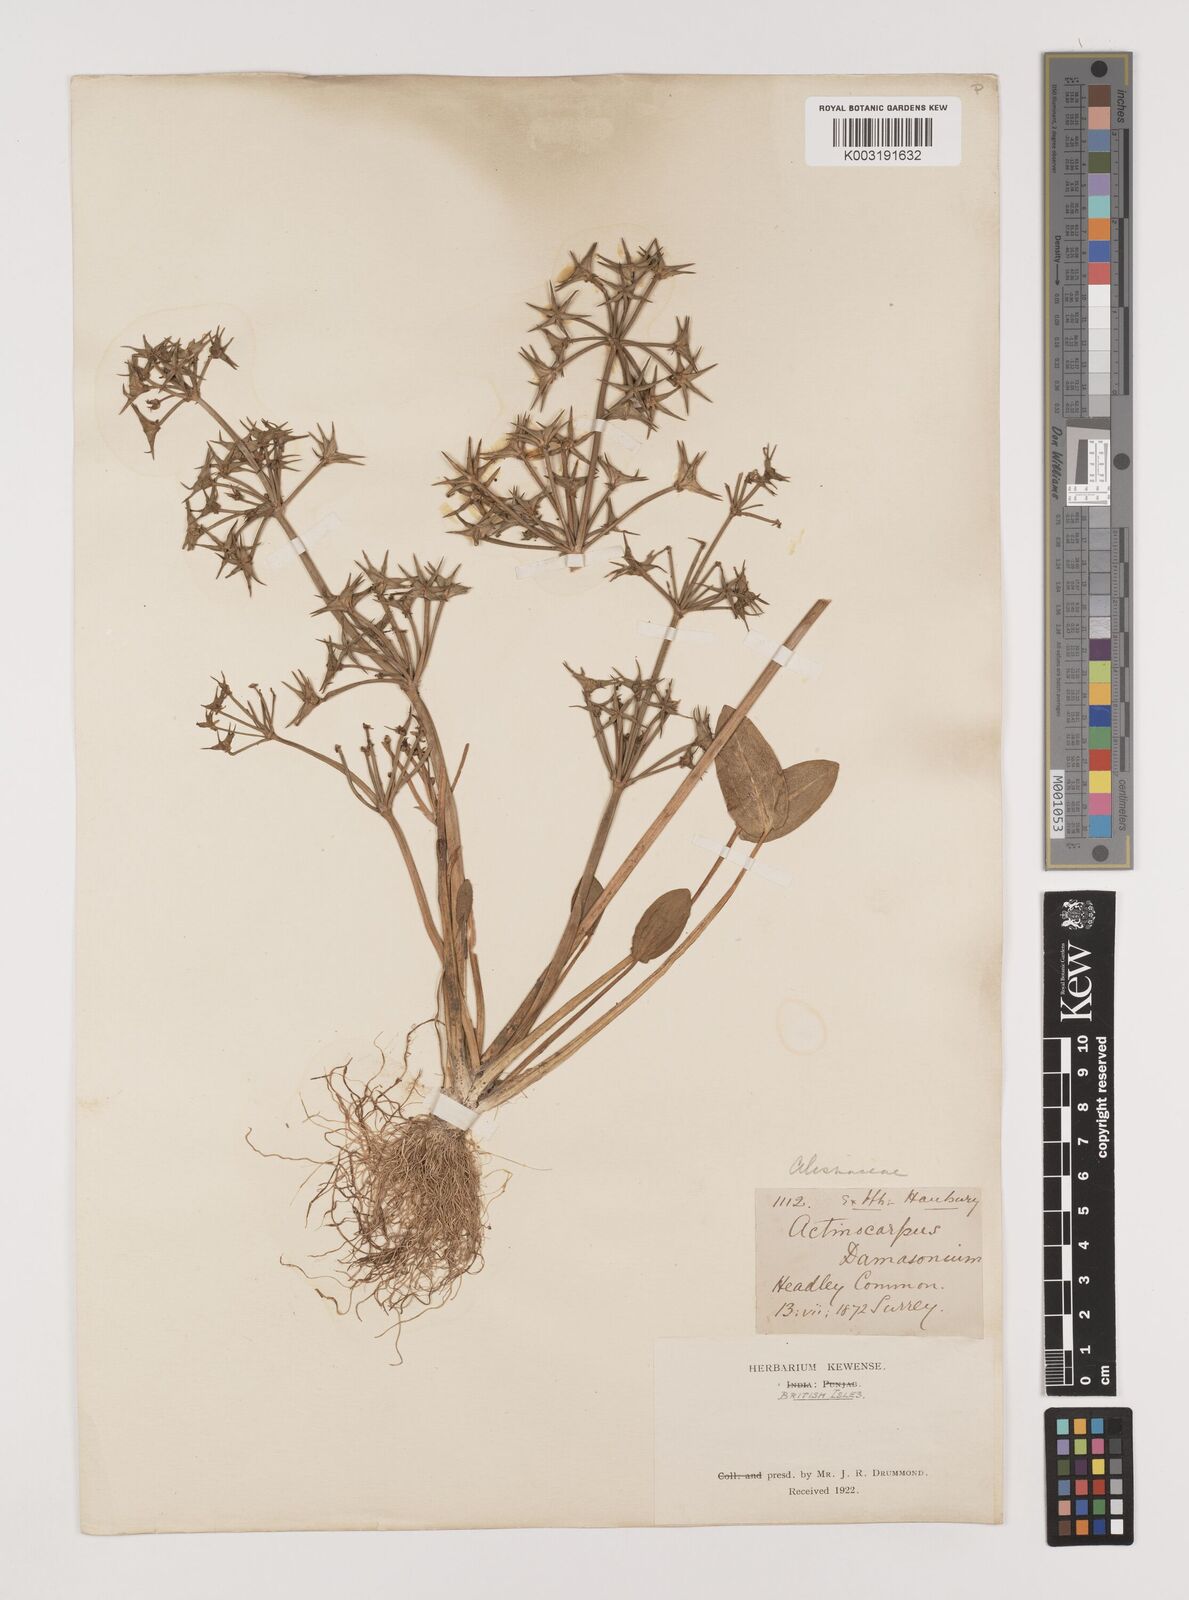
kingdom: Plantae
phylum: Tracheophyta
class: Liliopsida
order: Alismatales
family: Alismataceae
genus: Damasonium
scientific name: Damasonium alisma
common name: Starfruit
